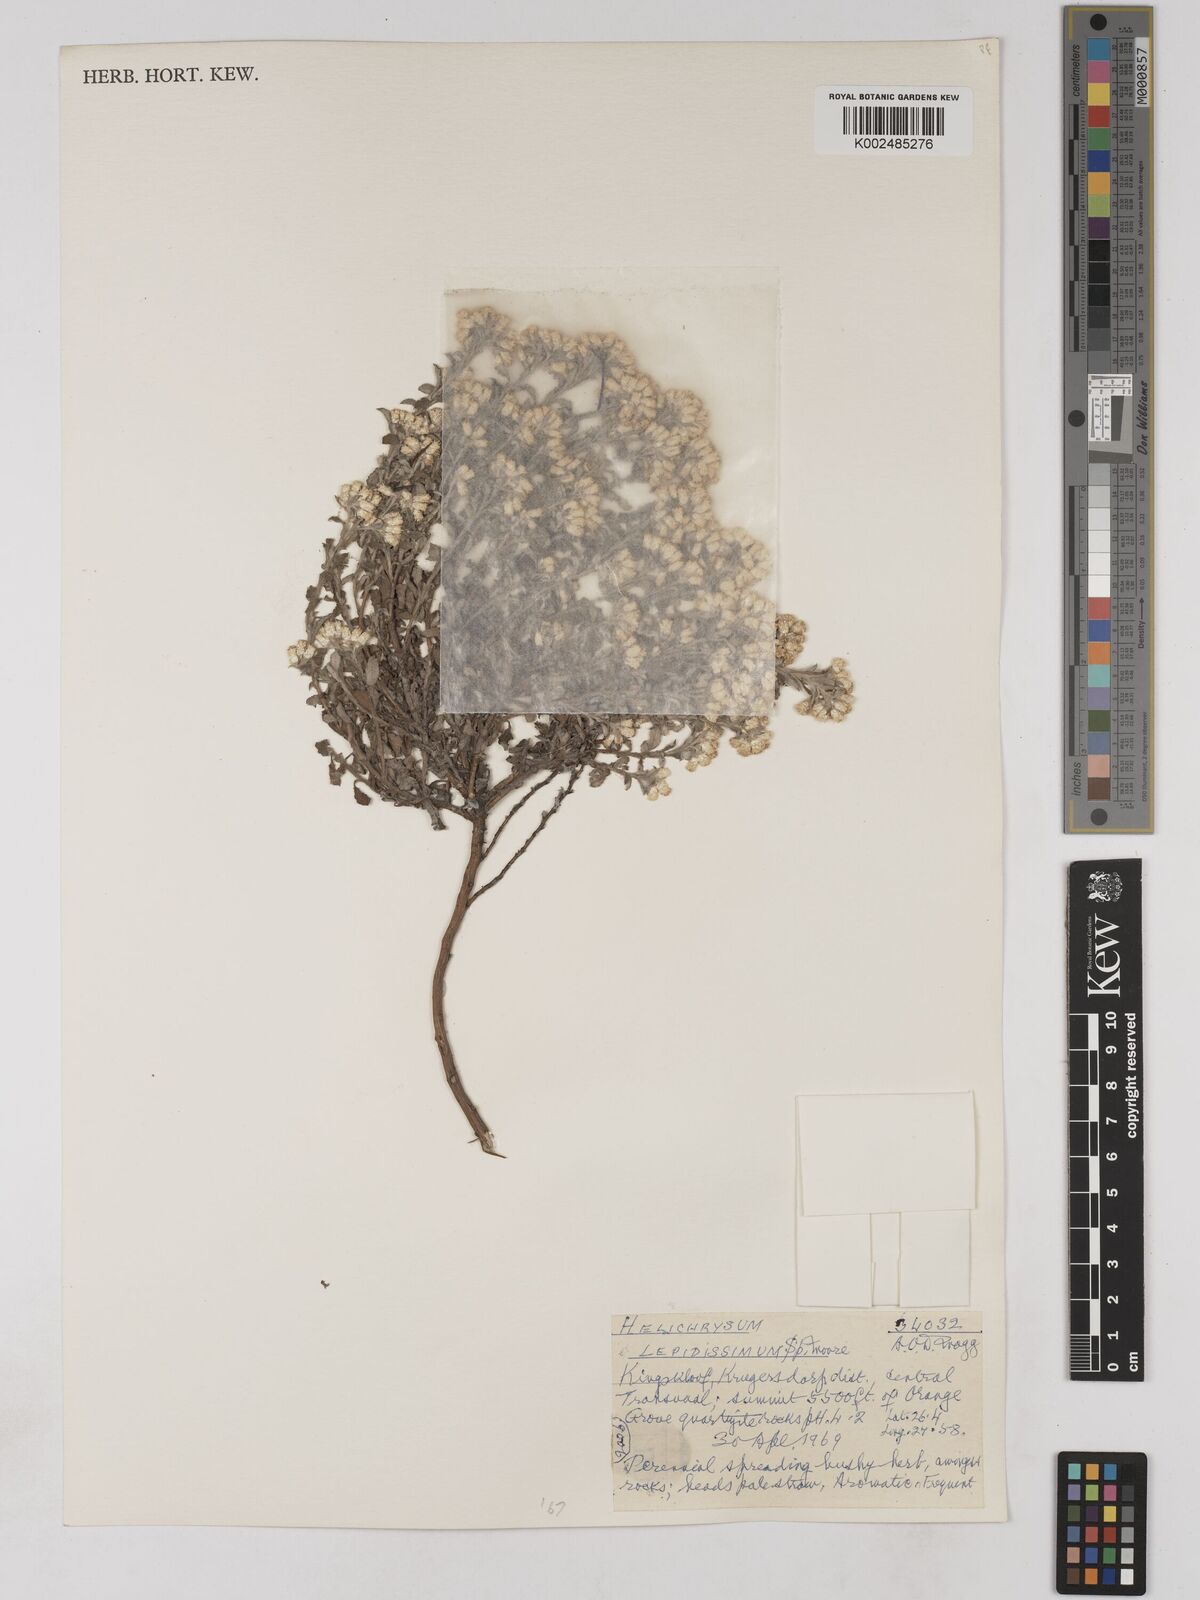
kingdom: Plantae
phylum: Tracheophyta
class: Magnoliopsida
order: Asterales
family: Asteraceae
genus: Helichrysum
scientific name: Helichrysum lepidissimum
